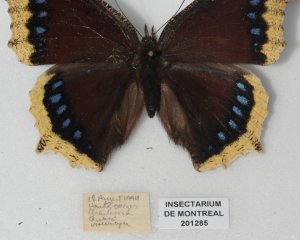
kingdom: Animalia
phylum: Arthropoda
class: Insecta
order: Lepidoptera
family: Nymphalidae
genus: Nymphalis
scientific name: Nymphalis antiopa
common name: Mourning Cloak
